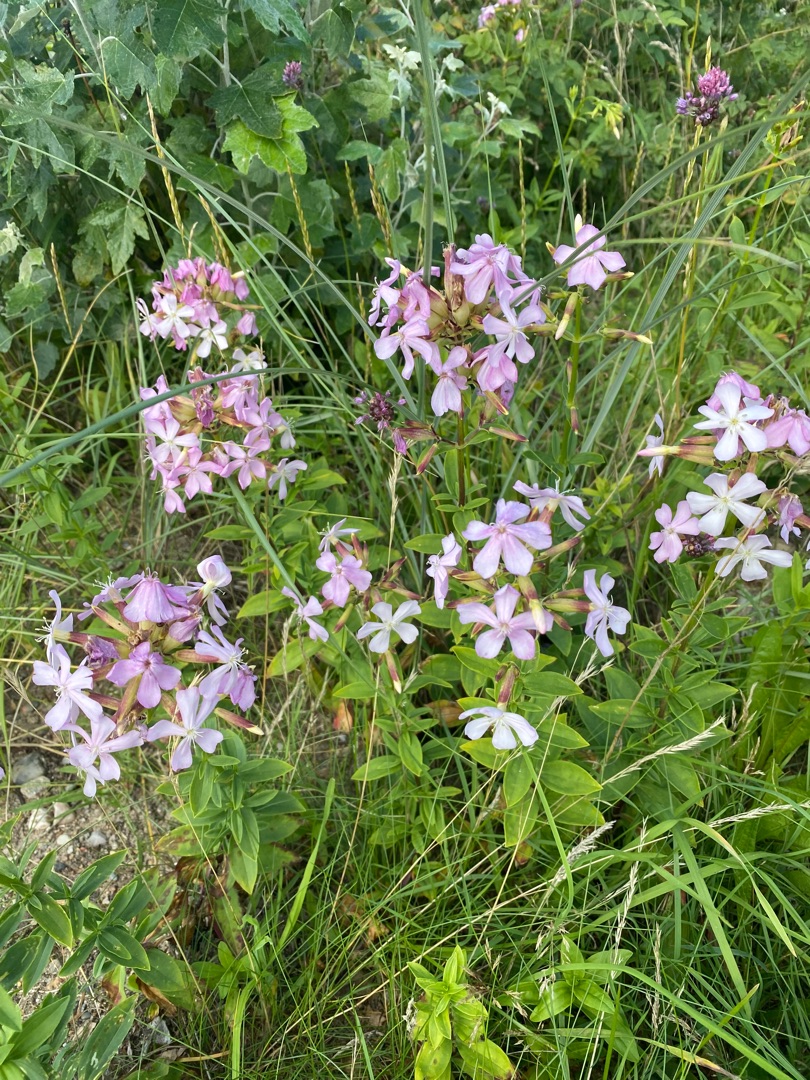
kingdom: Plantae
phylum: Tracheophyta
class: Magnoliopsida
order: Caryophyllales
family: Caryophyllaceae
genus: Saponaria
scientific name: Saponaria officinalis
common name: Sæbeurt
